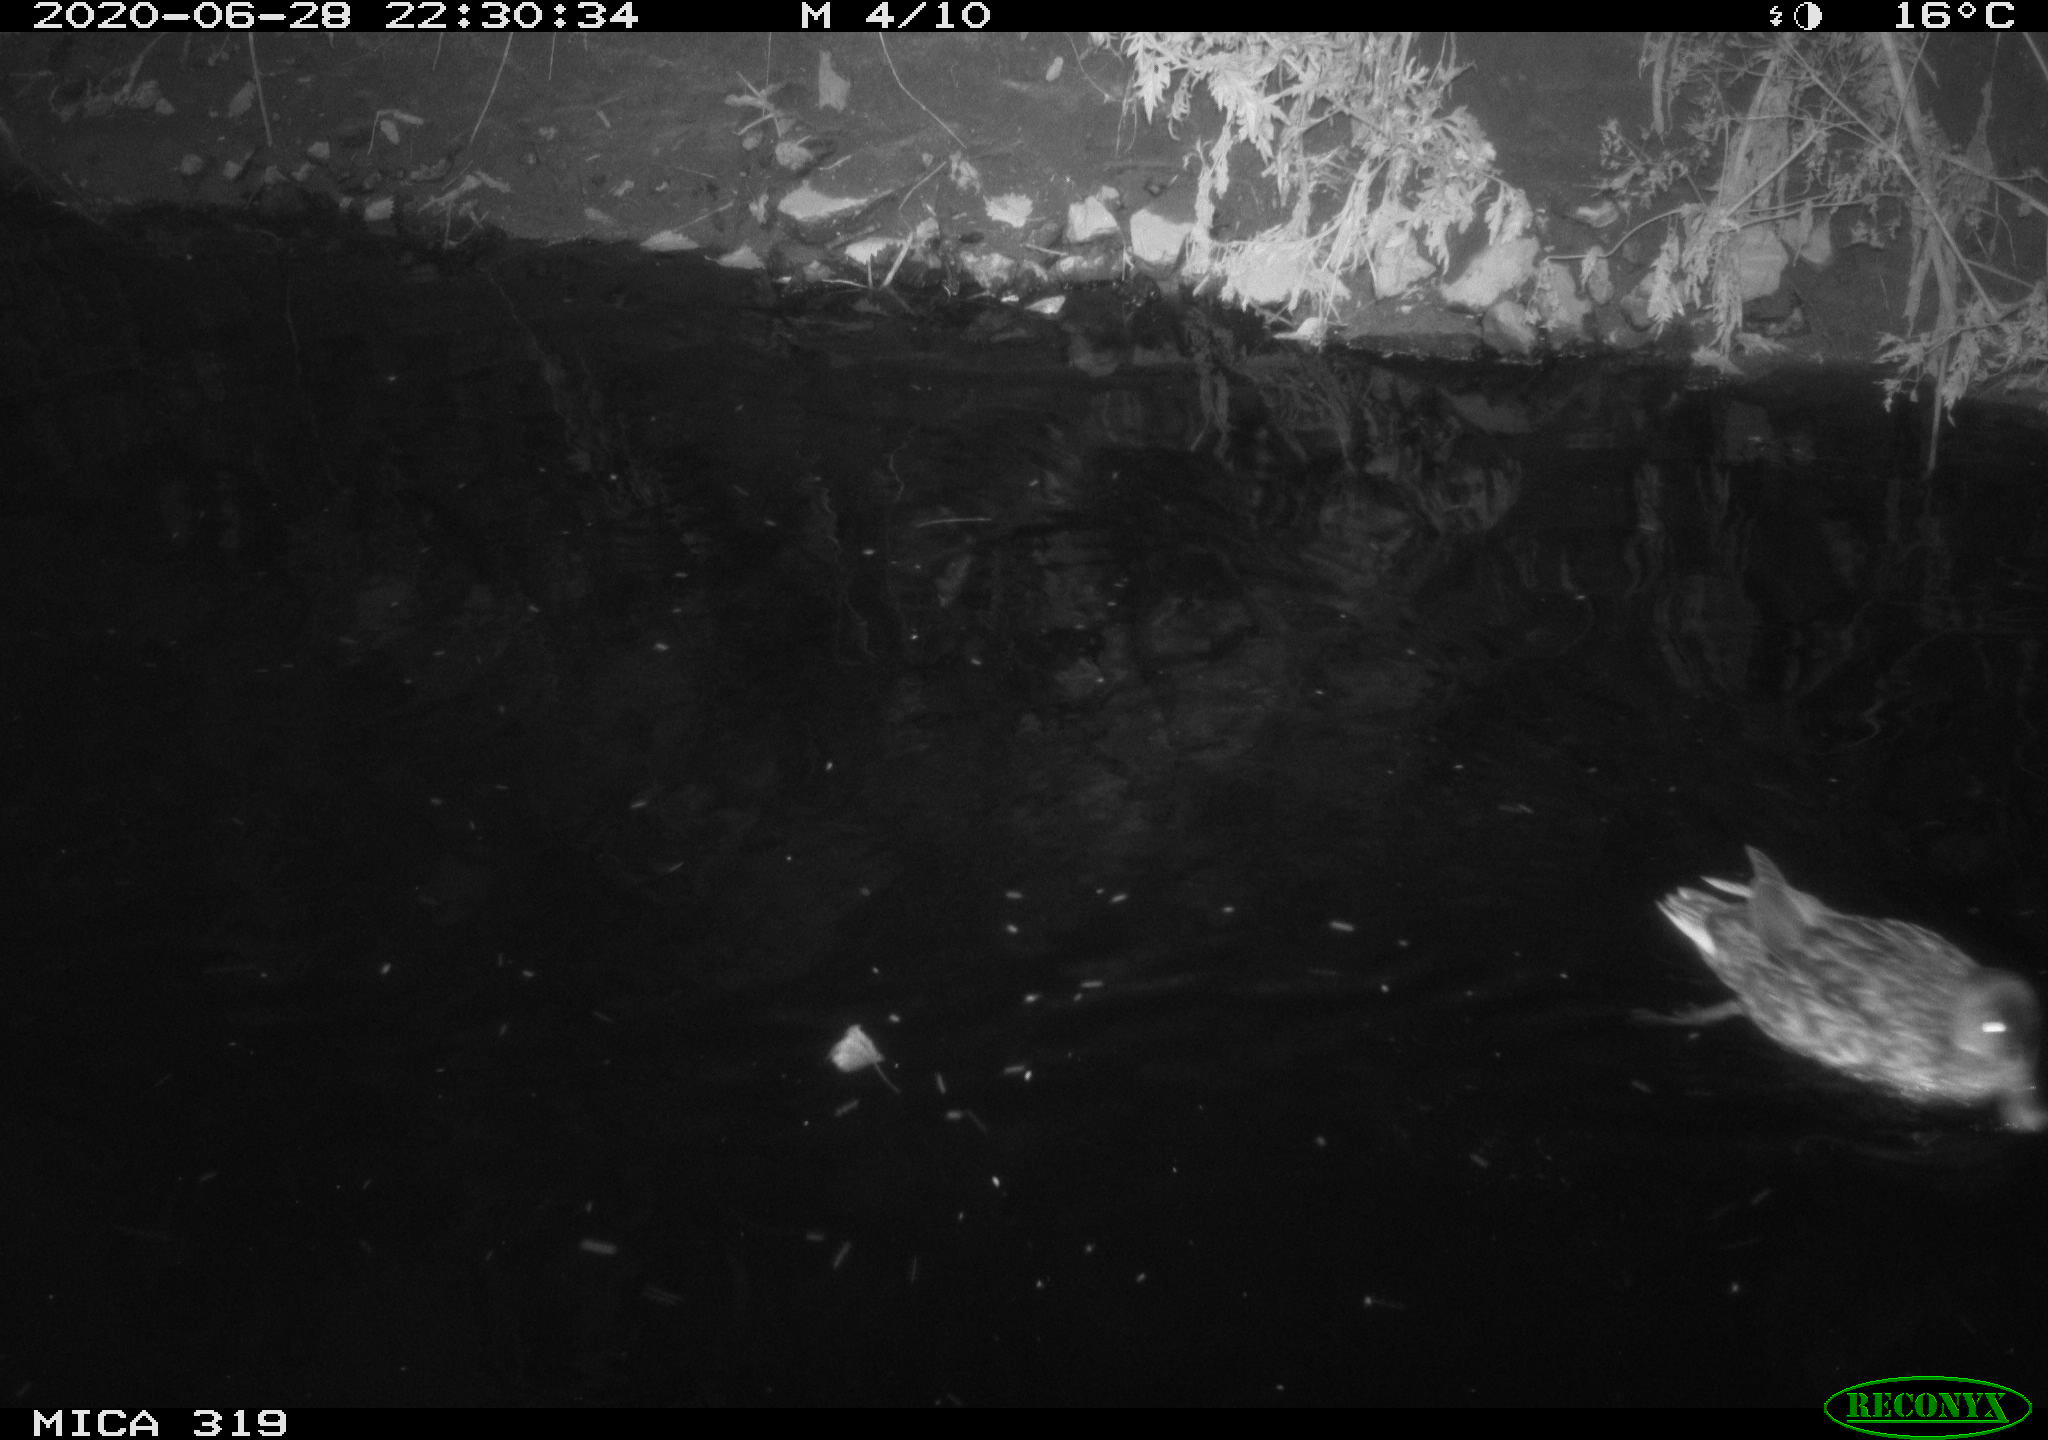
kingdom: Animalia
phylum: Chordata
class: Aves
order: Anseriformes
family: Anatidae
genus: Anas
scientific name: Anas platyrhynchos
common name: Mallard
